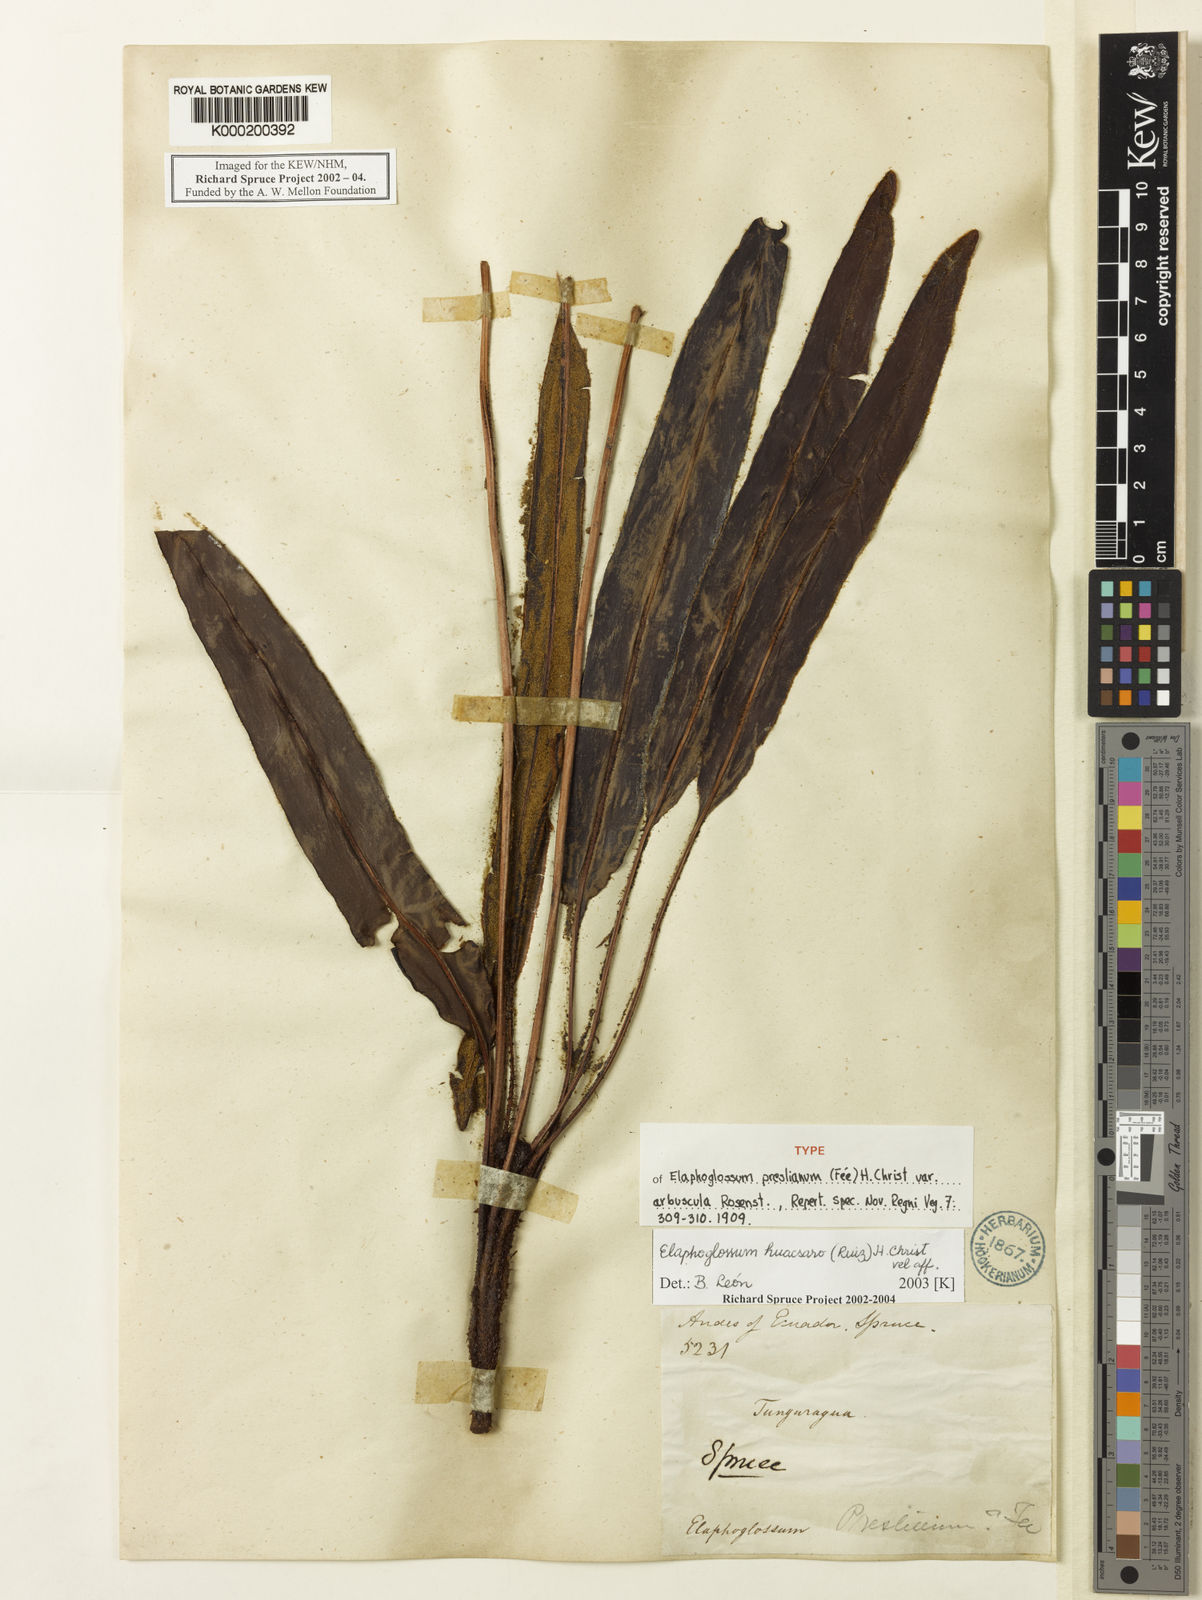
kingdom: Plantae
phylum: Tracheophyta
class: Polypodiopsida
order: Polypodiales
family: Dryopteridaceae
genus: Elaphoglossum
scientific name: Elaphoglossum huacsaro
